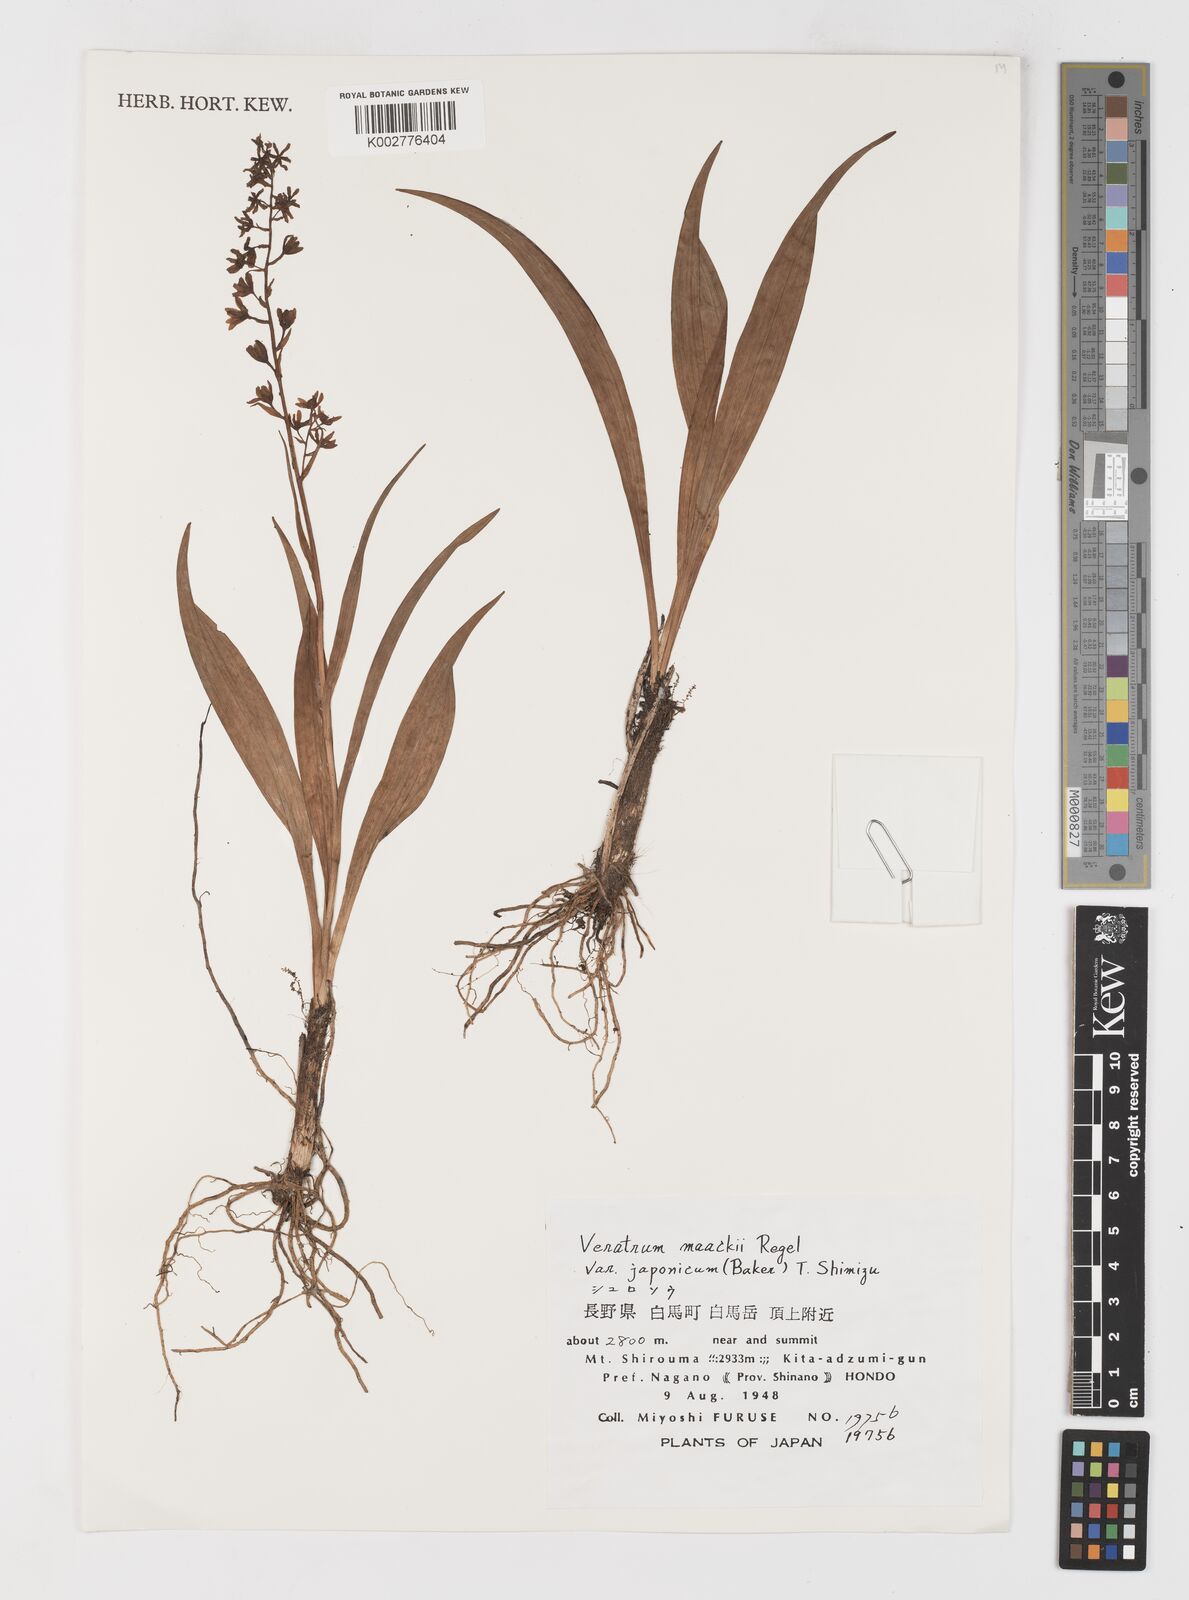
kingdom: Plantae
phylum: Tracheophyta
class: Liliopsida
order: Liliales
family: Melanthiaceae
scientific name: Melanthiaceae
